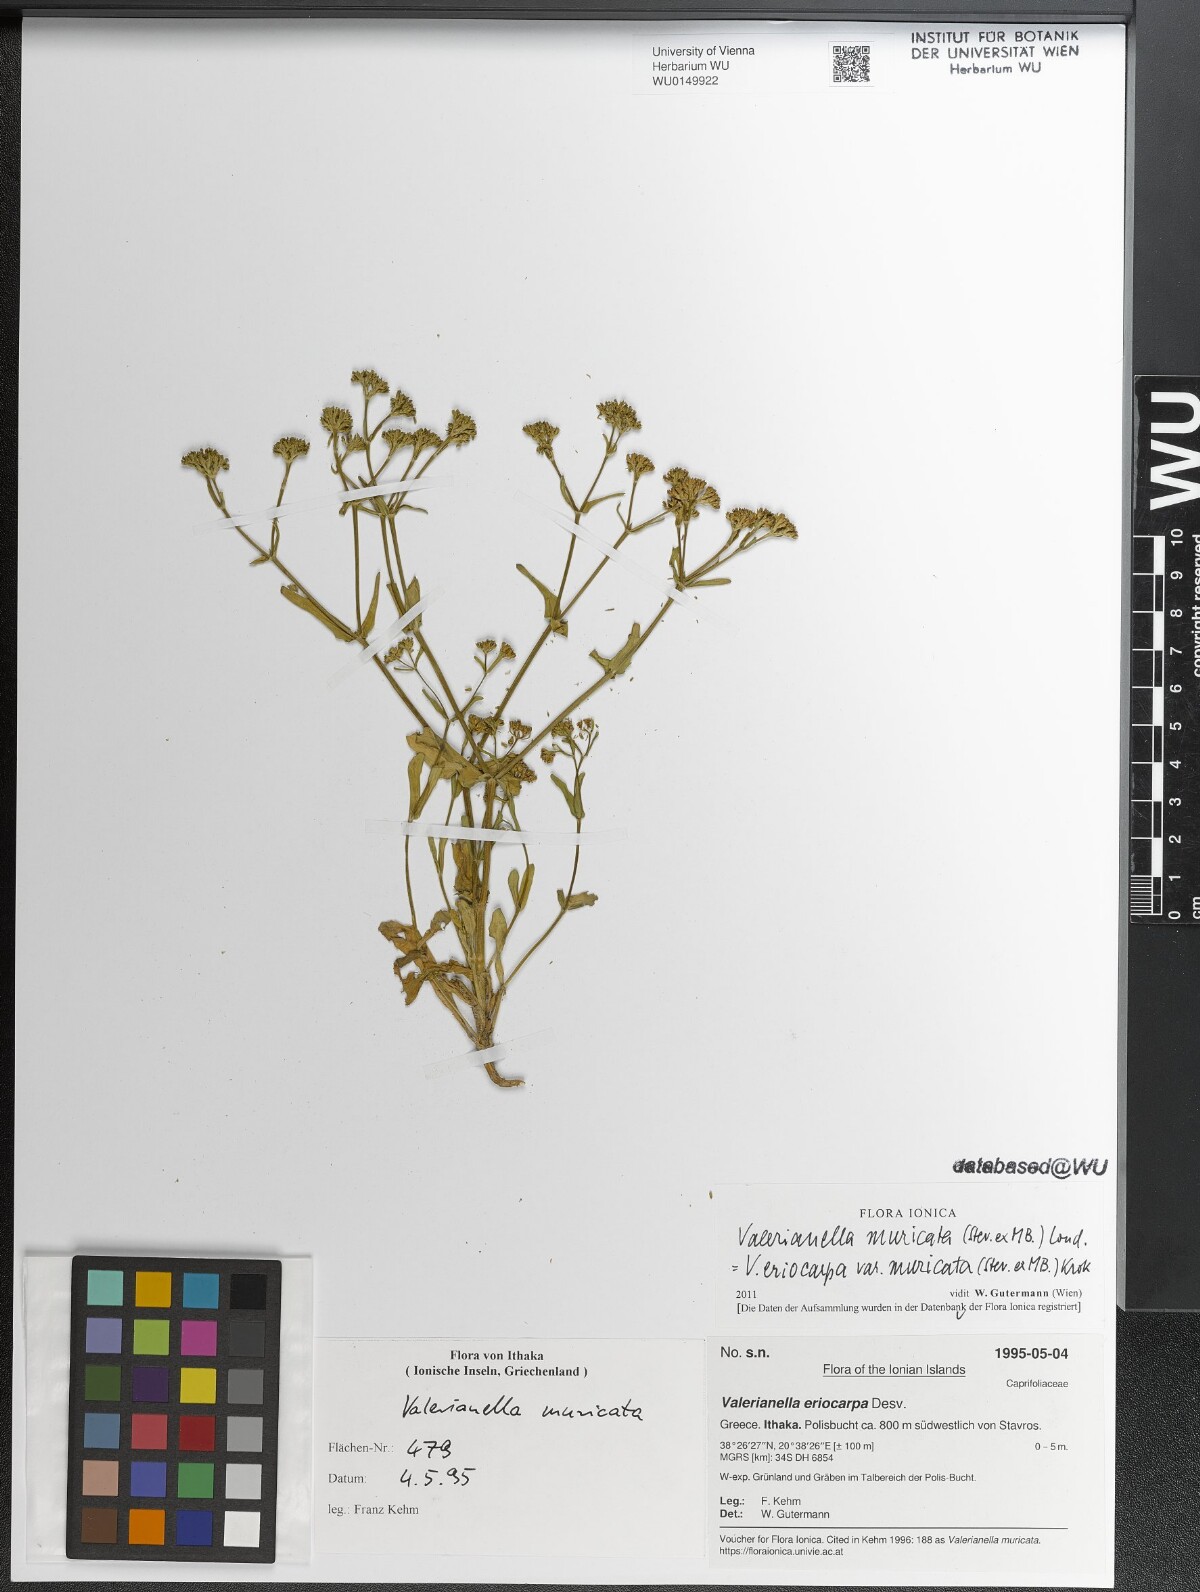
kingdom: Plantae
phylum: Tracheophyta
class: Magnoliopsida
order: Dipsacales
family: Caprifoliaceae
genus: Valerianella
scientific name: Valerianella eriocarpa
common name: Hairy-fruited cornsalad
